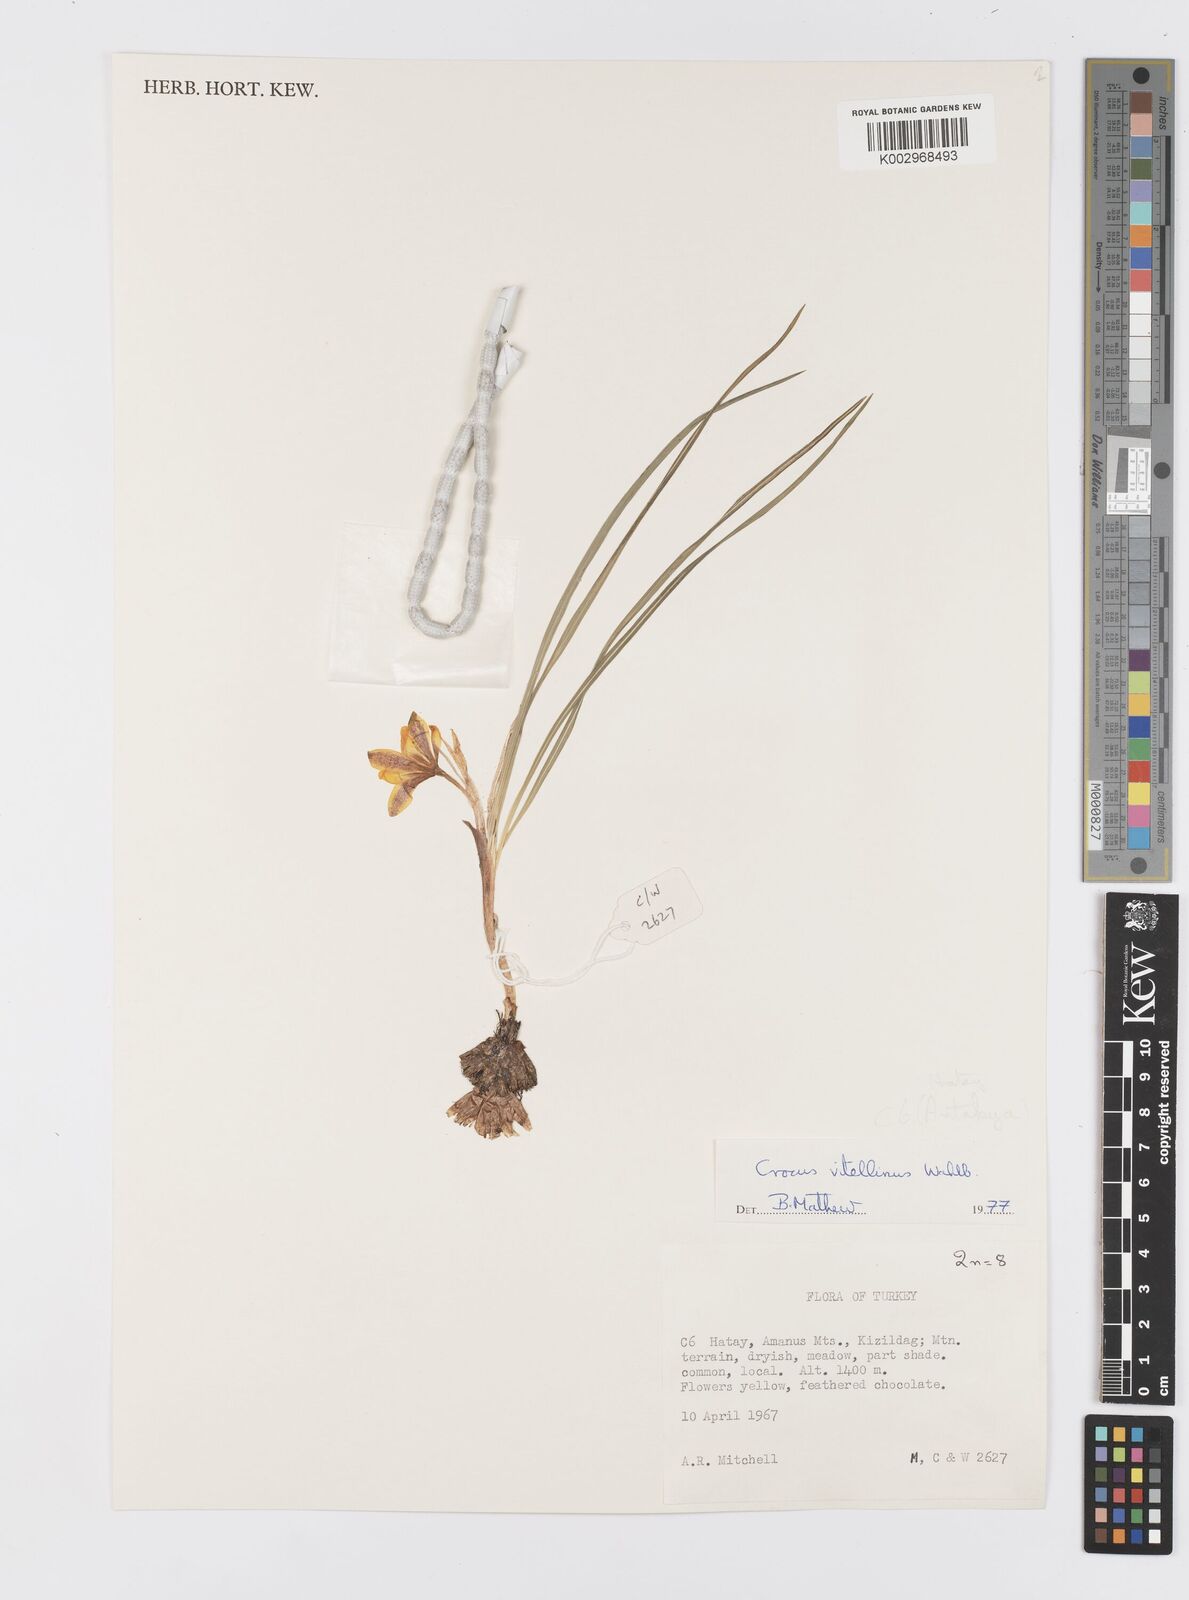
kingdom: Plantae
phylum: Tracheophyta
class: Liliopsida
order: Asparagales
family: Iridaceae
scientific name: Iridaceae
